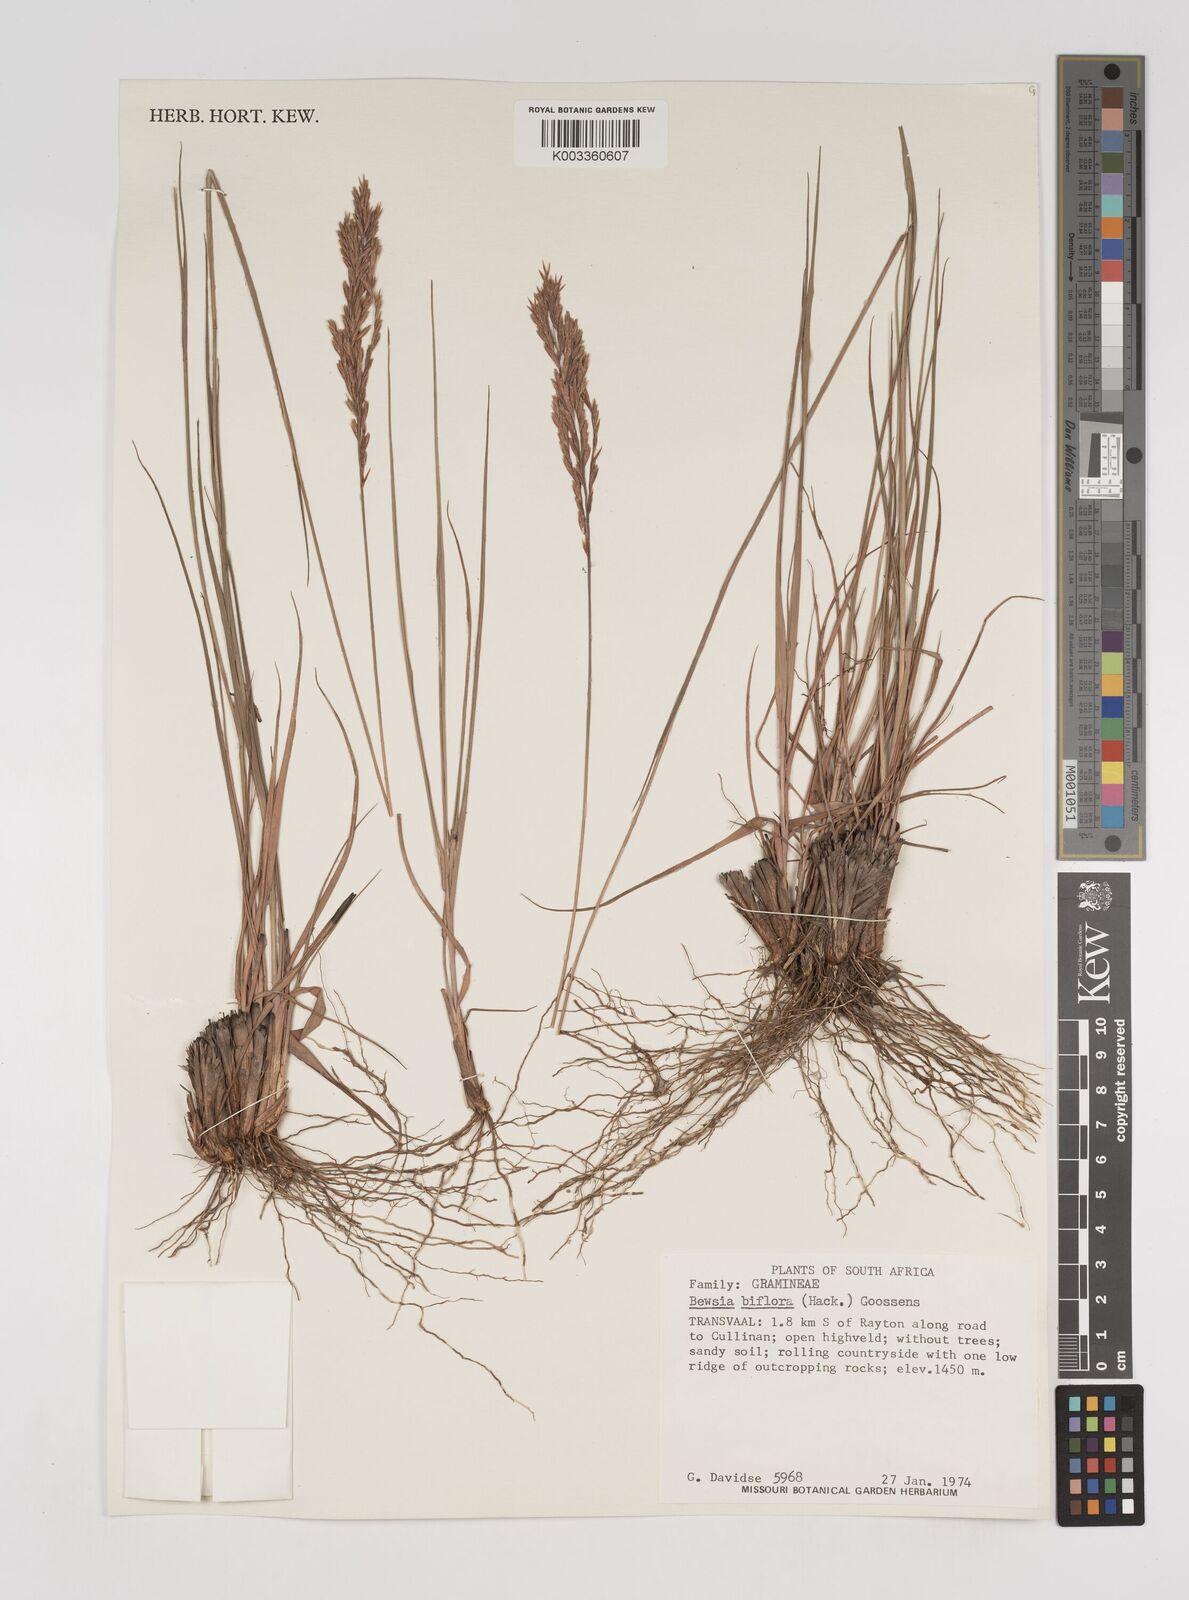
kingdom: Plantae
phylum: Tracheophyta
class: Liliopsida
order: Poales
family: Poaceae
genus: Bewsia
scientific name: Bewsia biflora
